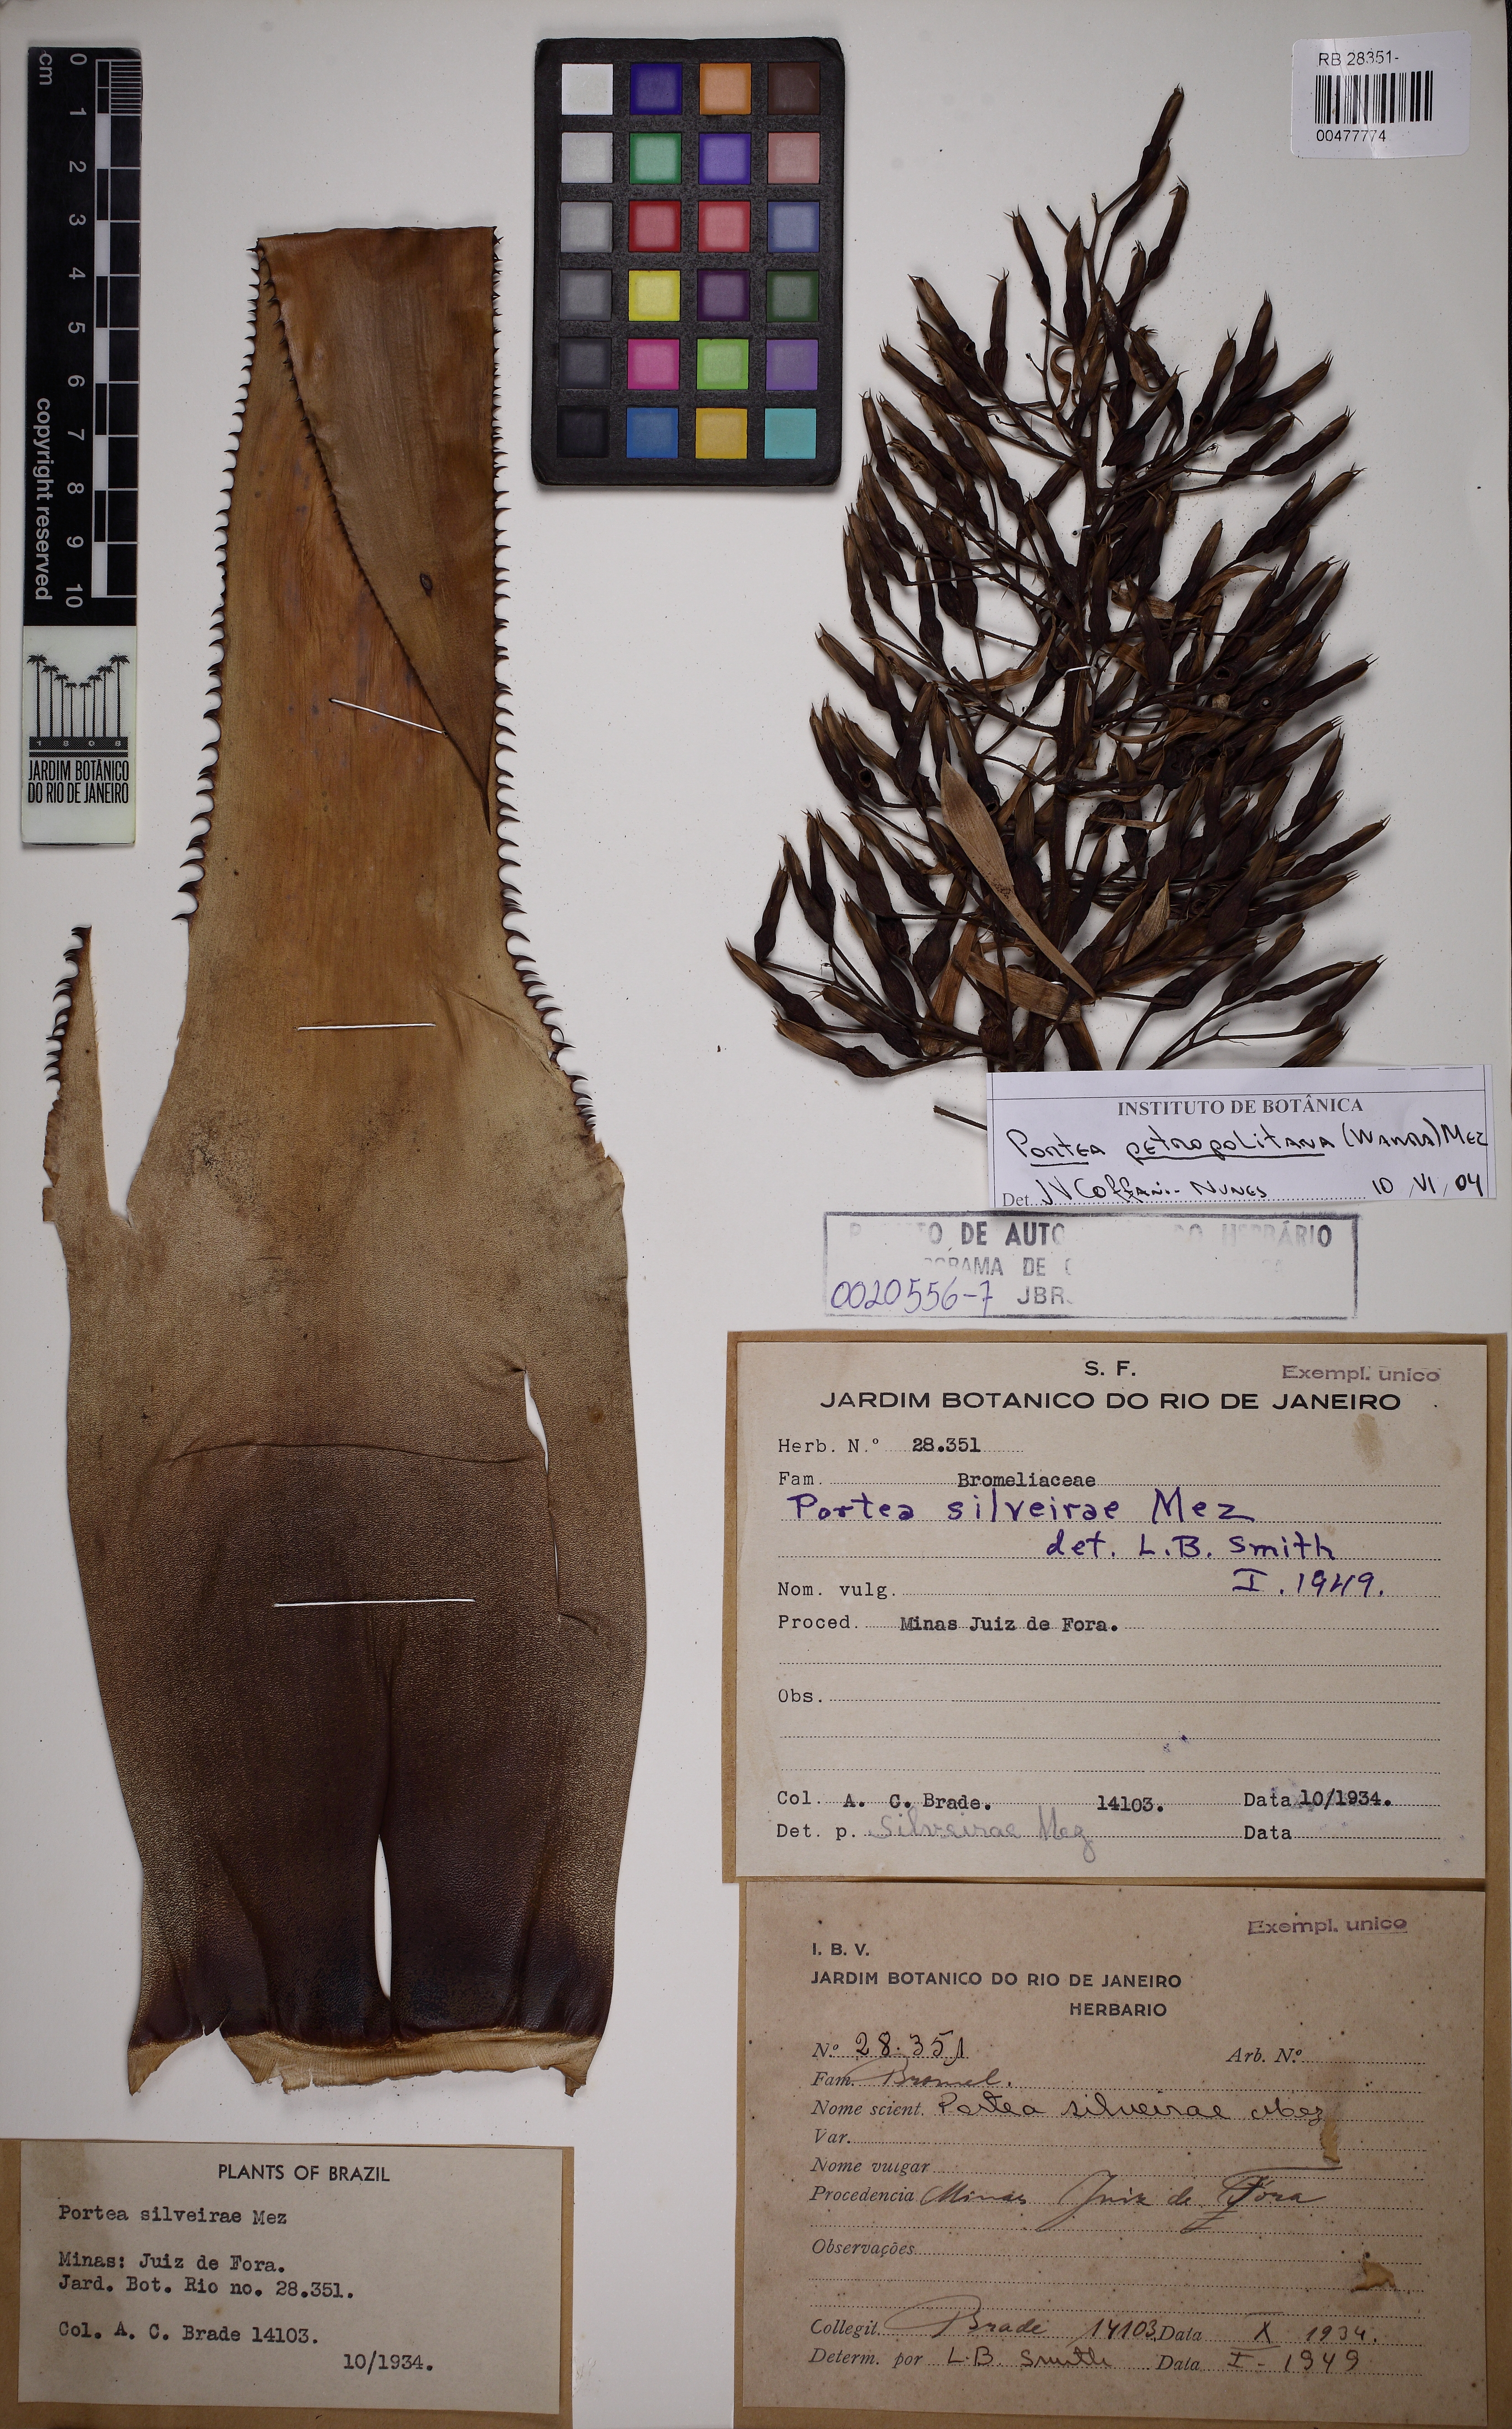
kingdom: Plantae
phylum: Tracheophyta
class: Liliopsida
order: Poales
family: Bromeliaceae
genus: Portea
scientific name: Portea petropolitana
